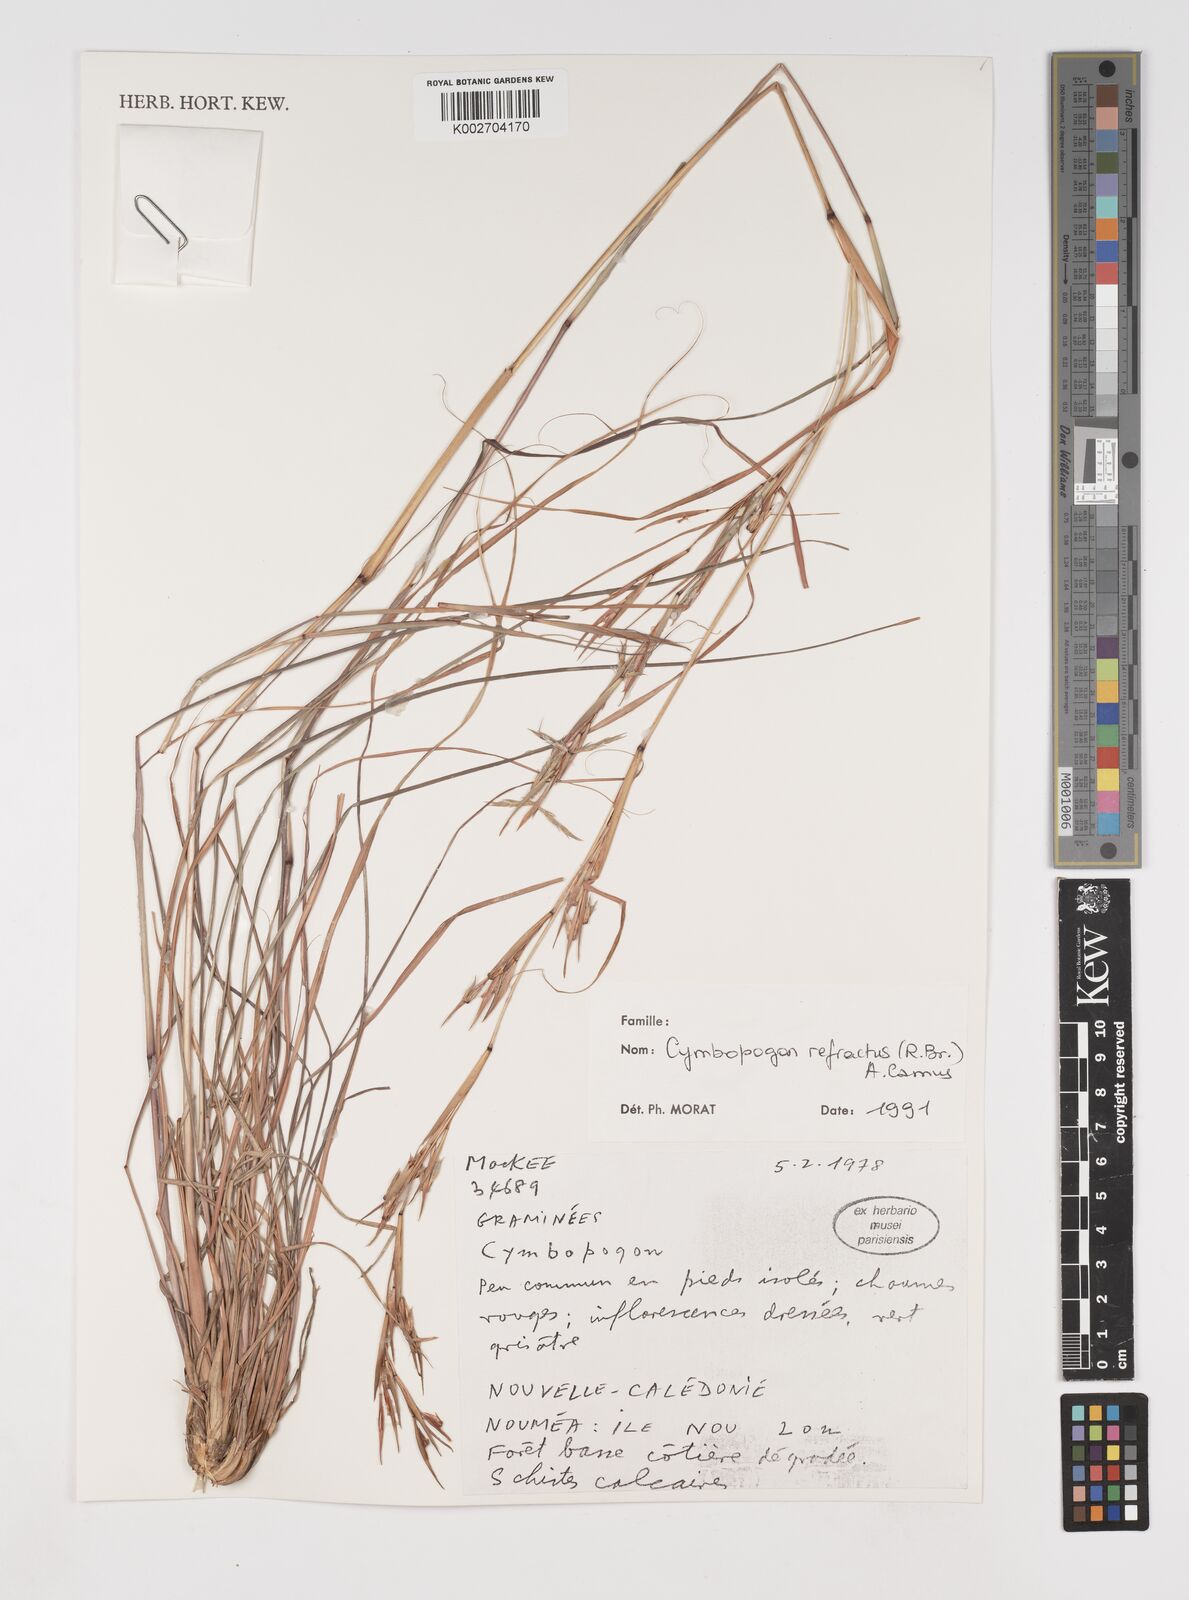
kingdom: Plantae
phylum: Tracheophyta
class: Liliopsida
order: Poales
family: Poaceae
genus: Cymbopogon
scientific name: Cymbopogon
